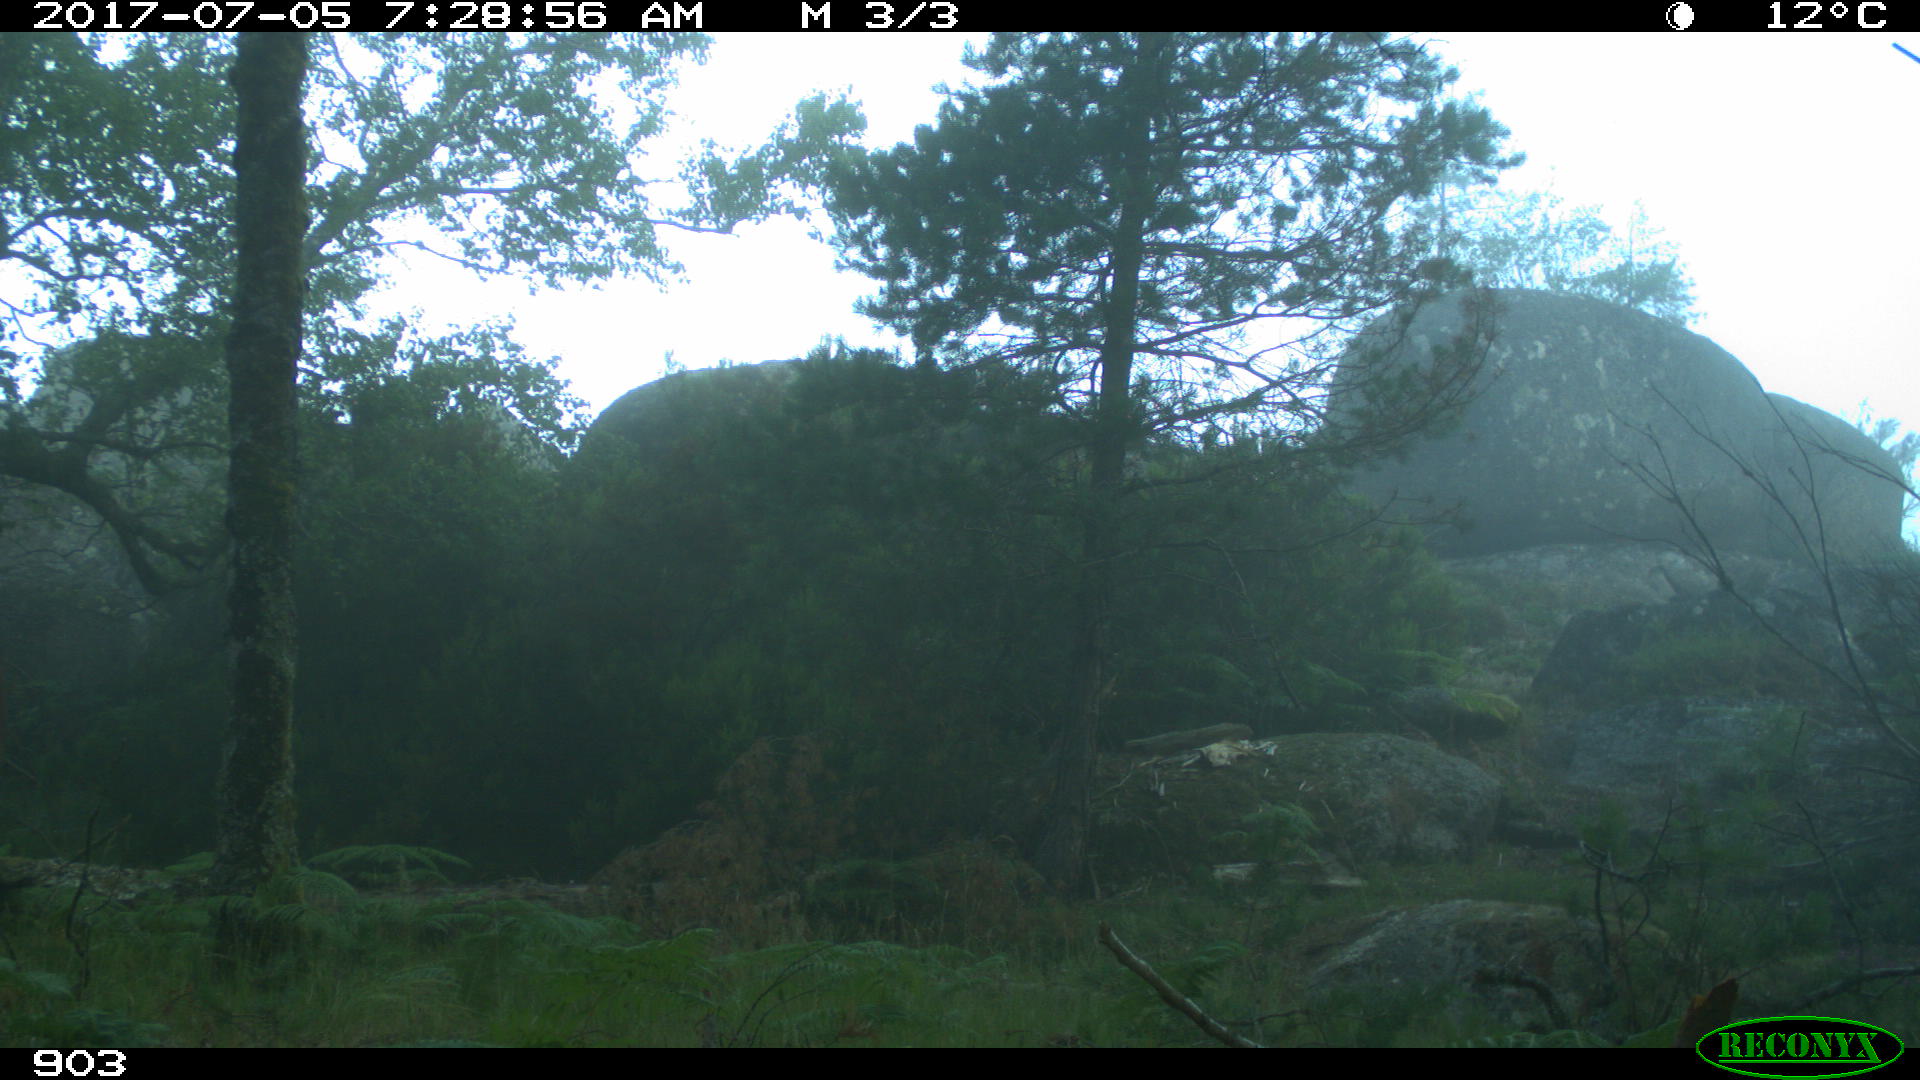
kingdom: Animalia
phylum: Chordata
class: Mammalia
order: Perissodactyla
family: Equidae
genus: Equus
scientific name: Equus caballus
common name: Horse
